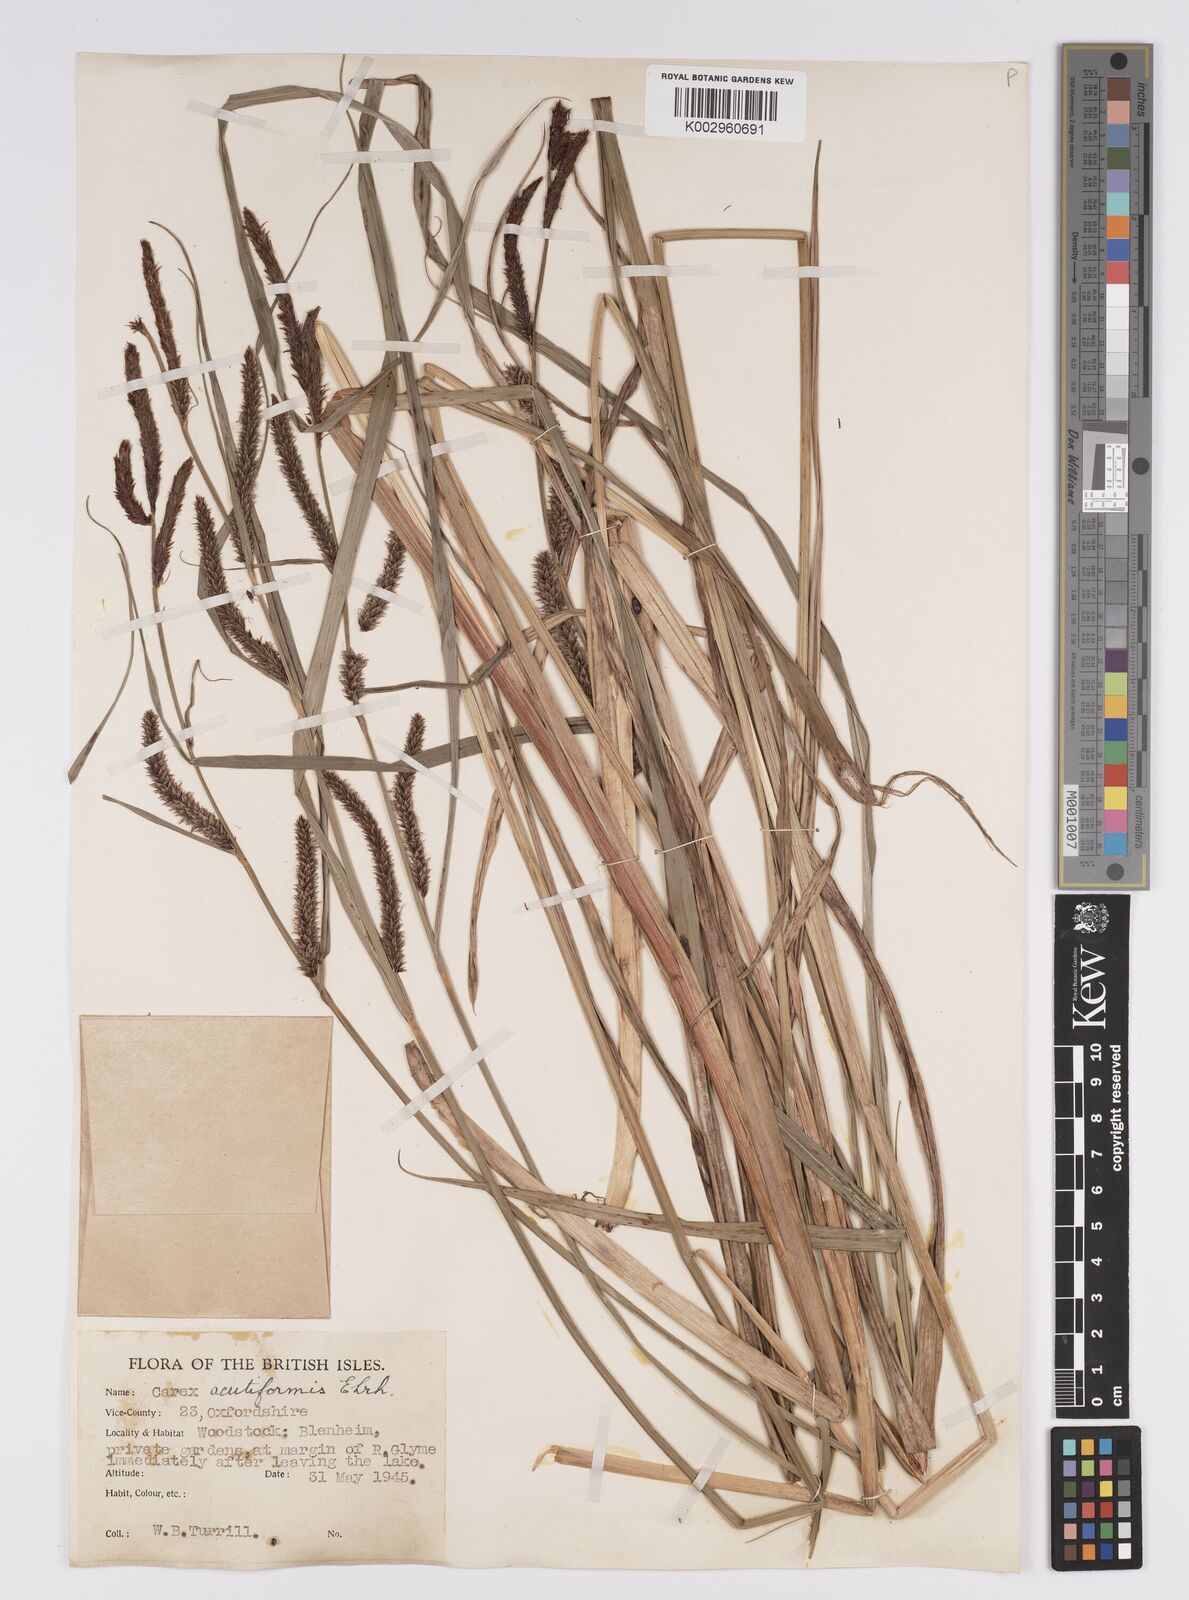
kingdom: Plantae
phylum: Tracheophyta
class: Liliopsida
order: Poales
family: Cyperaceae
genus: Carex
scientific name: Carex acutiformis
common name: Lesser pond-sedge
